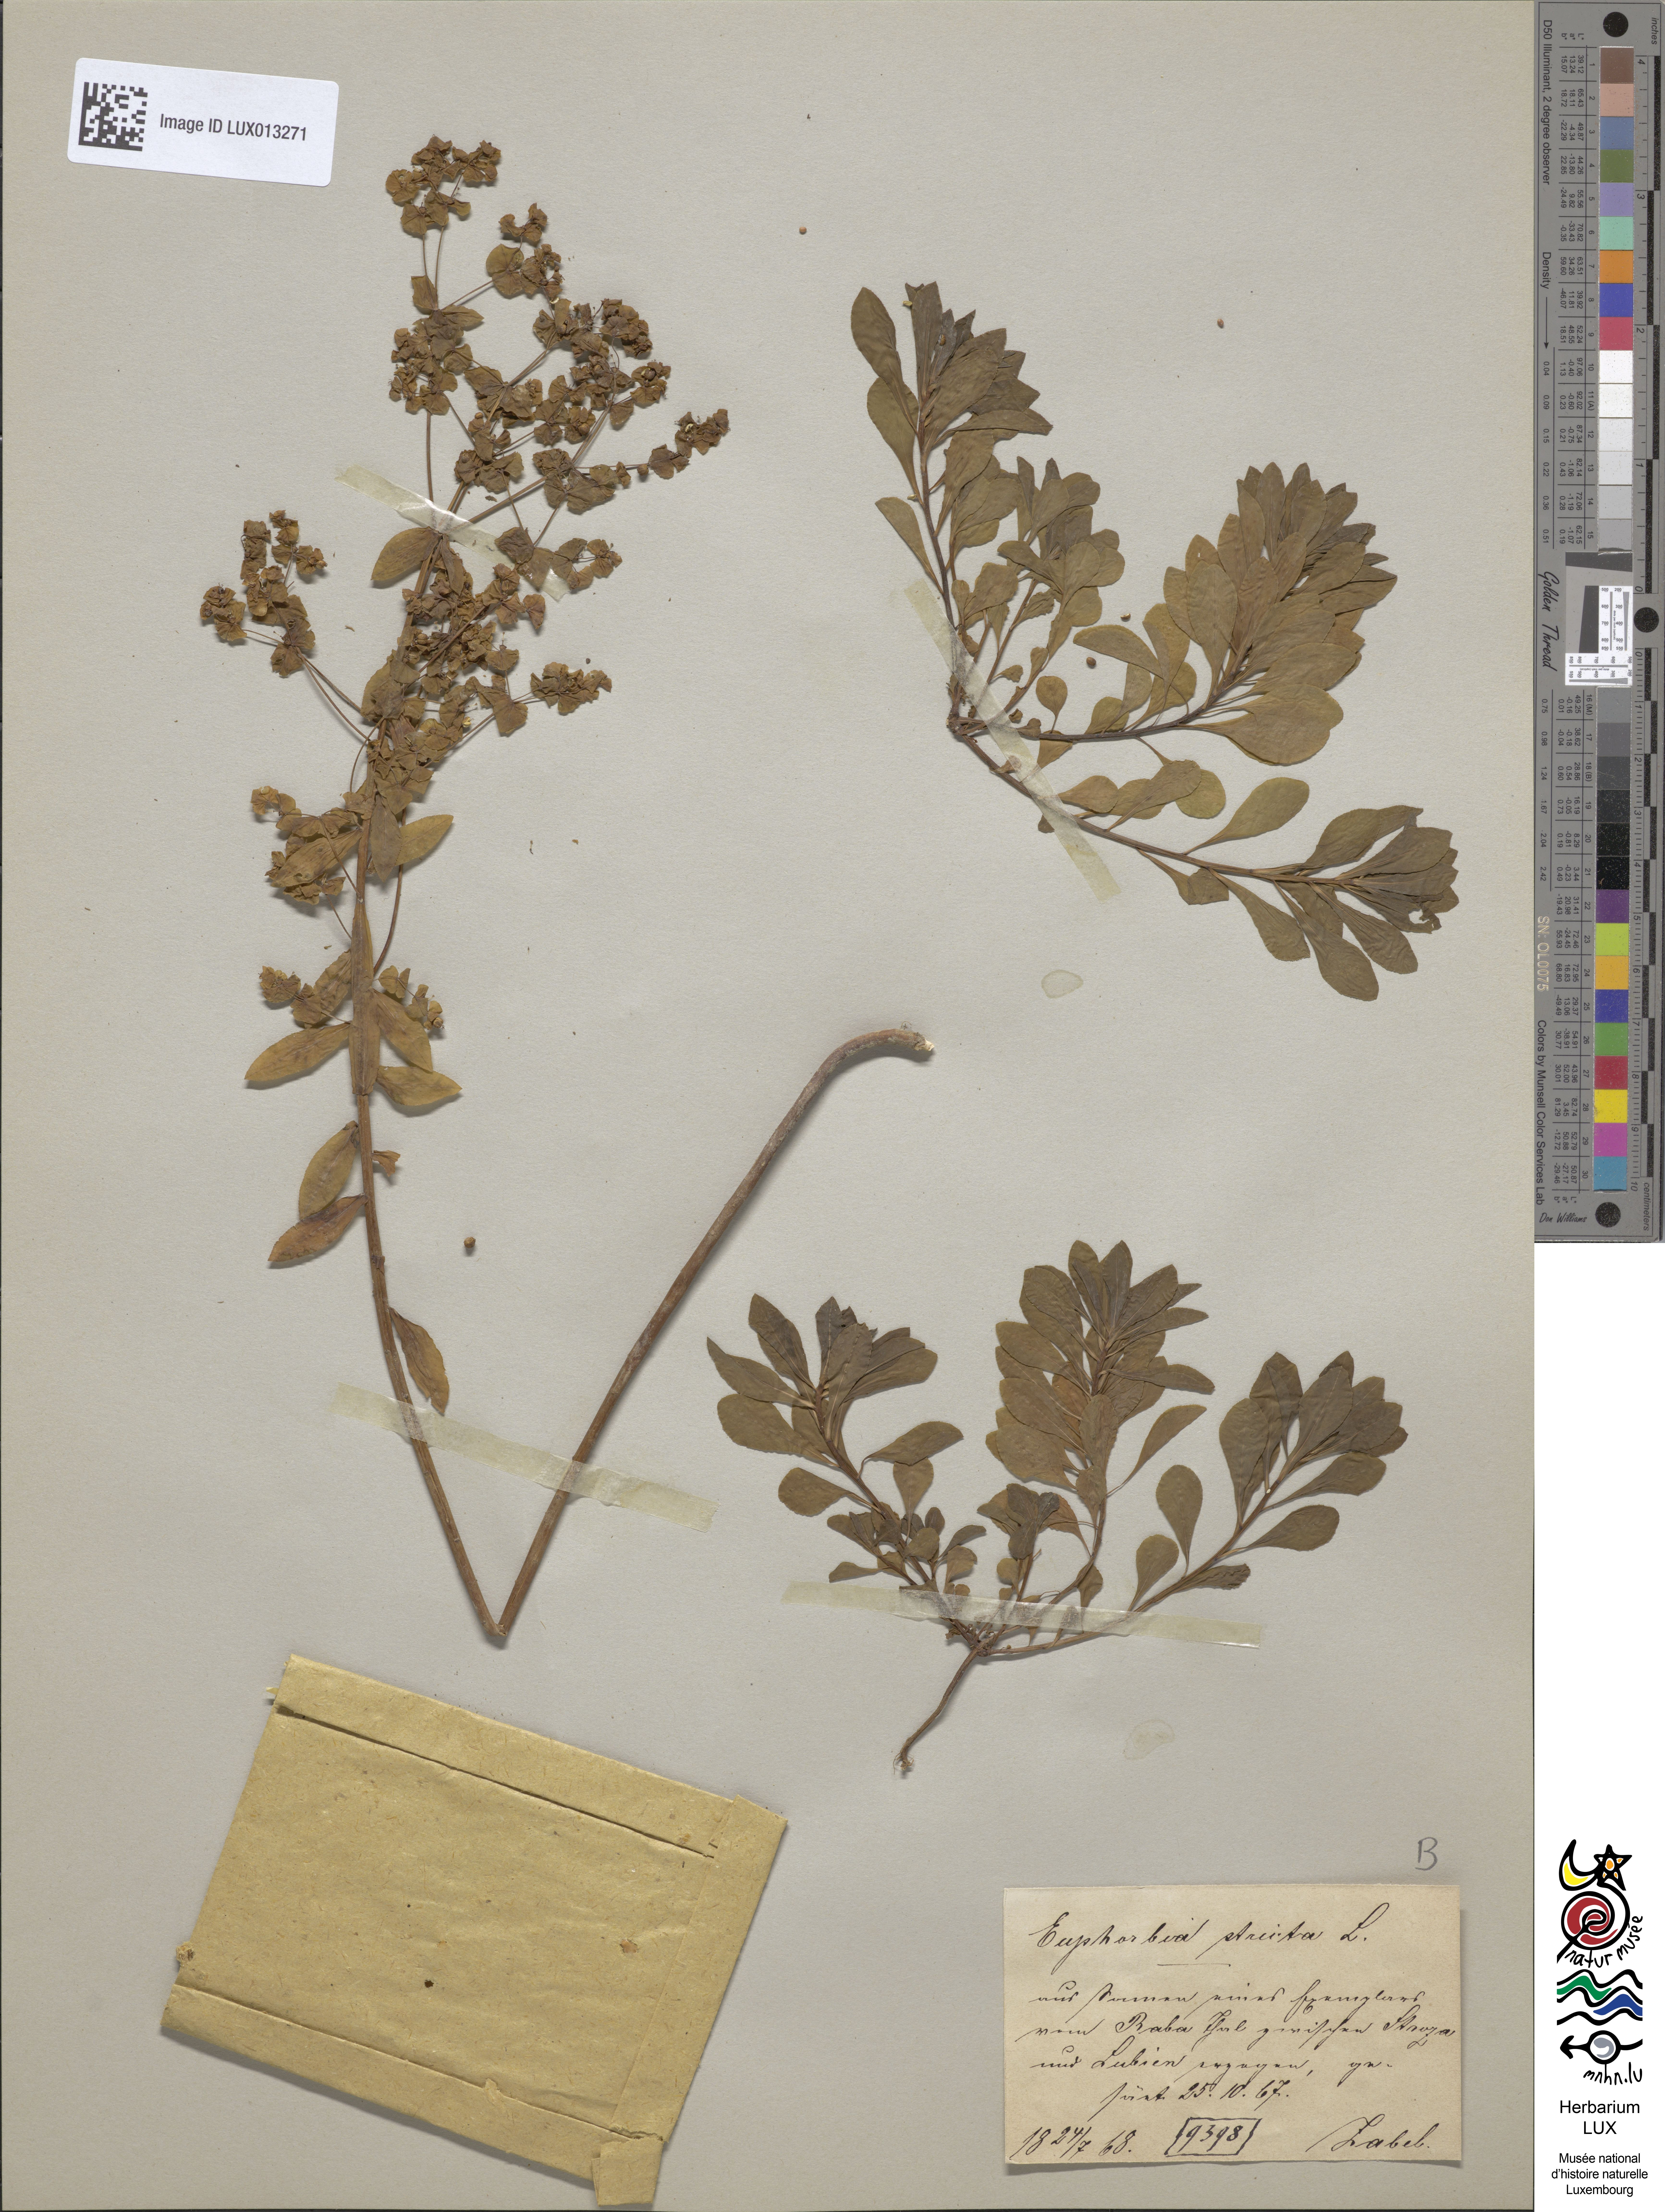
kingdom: Plantae
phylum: Tracheophyta
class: Magnoliopsida
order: Malpighiales
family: Euphorbiaceae
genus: Euphorbia
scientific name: Euphorbia stricta
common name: Upright spurge
